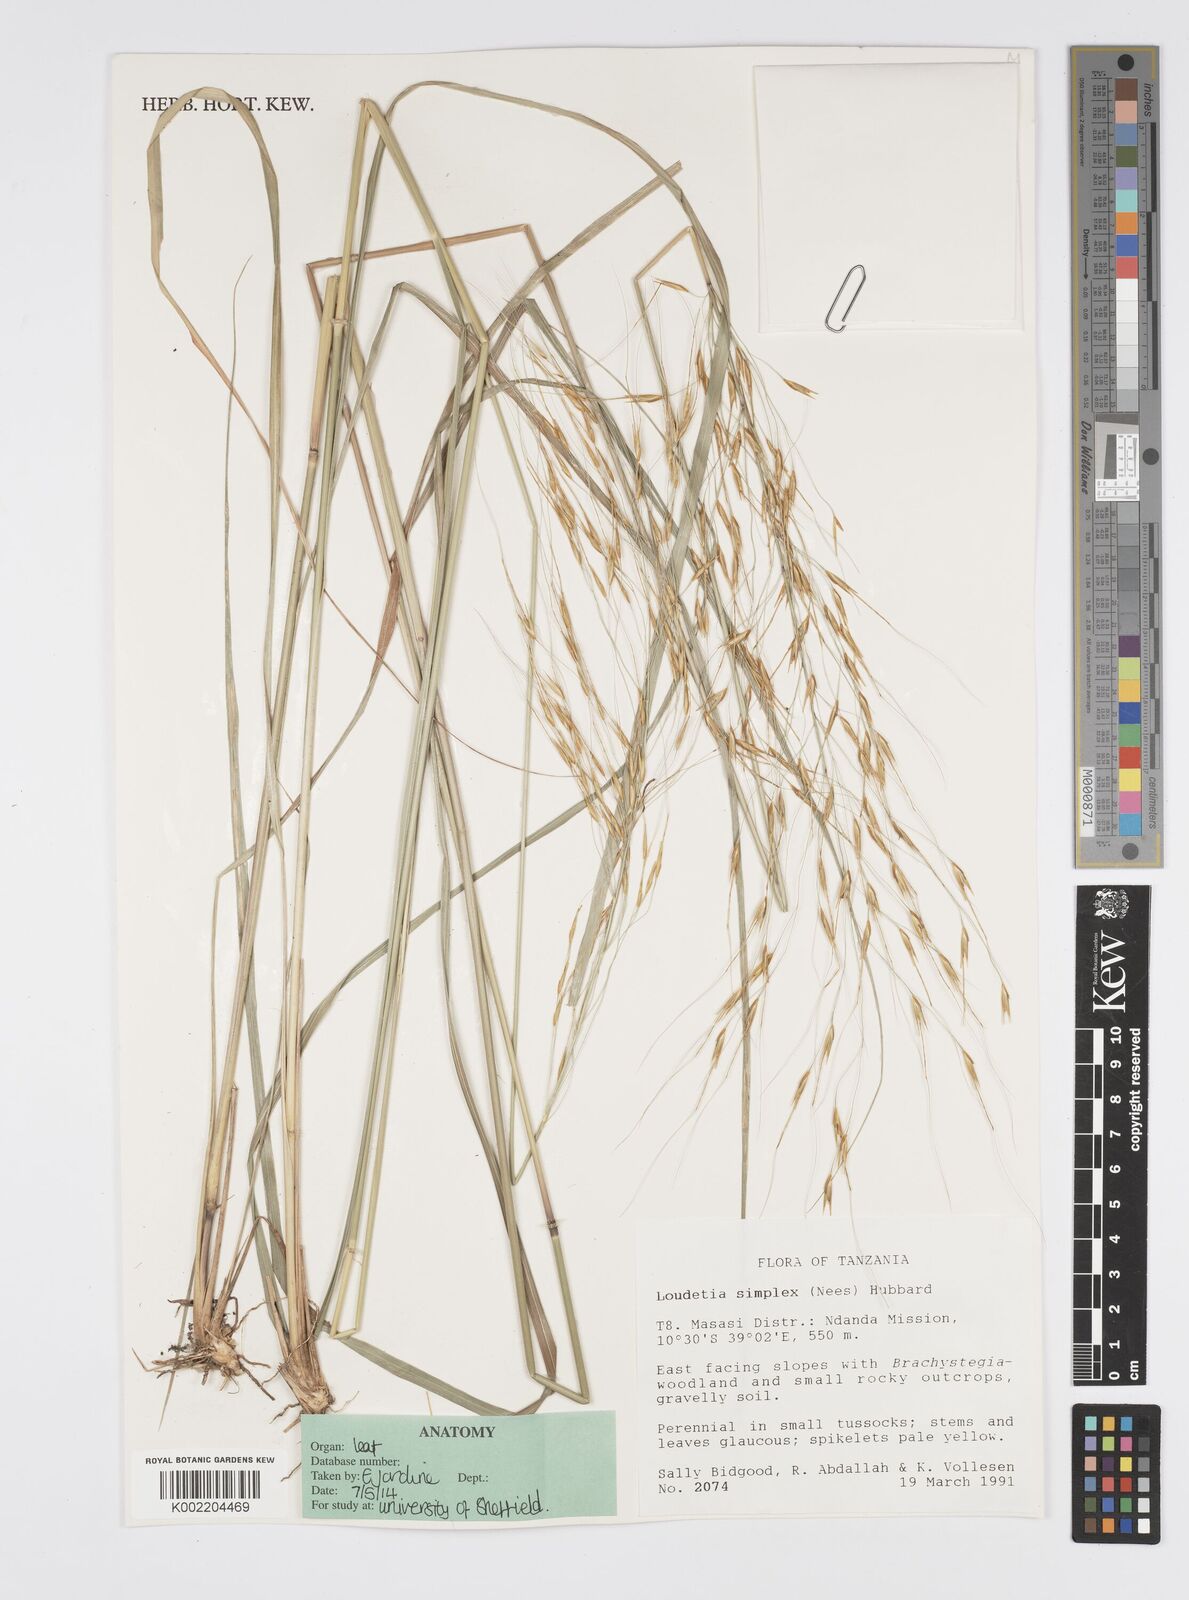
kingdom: Plantae
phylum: Tracheophyta
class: Liliopsida
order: Poales
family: Poaceae
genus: Loudetia
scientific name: Loudetia simplex
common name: Common russet grass
